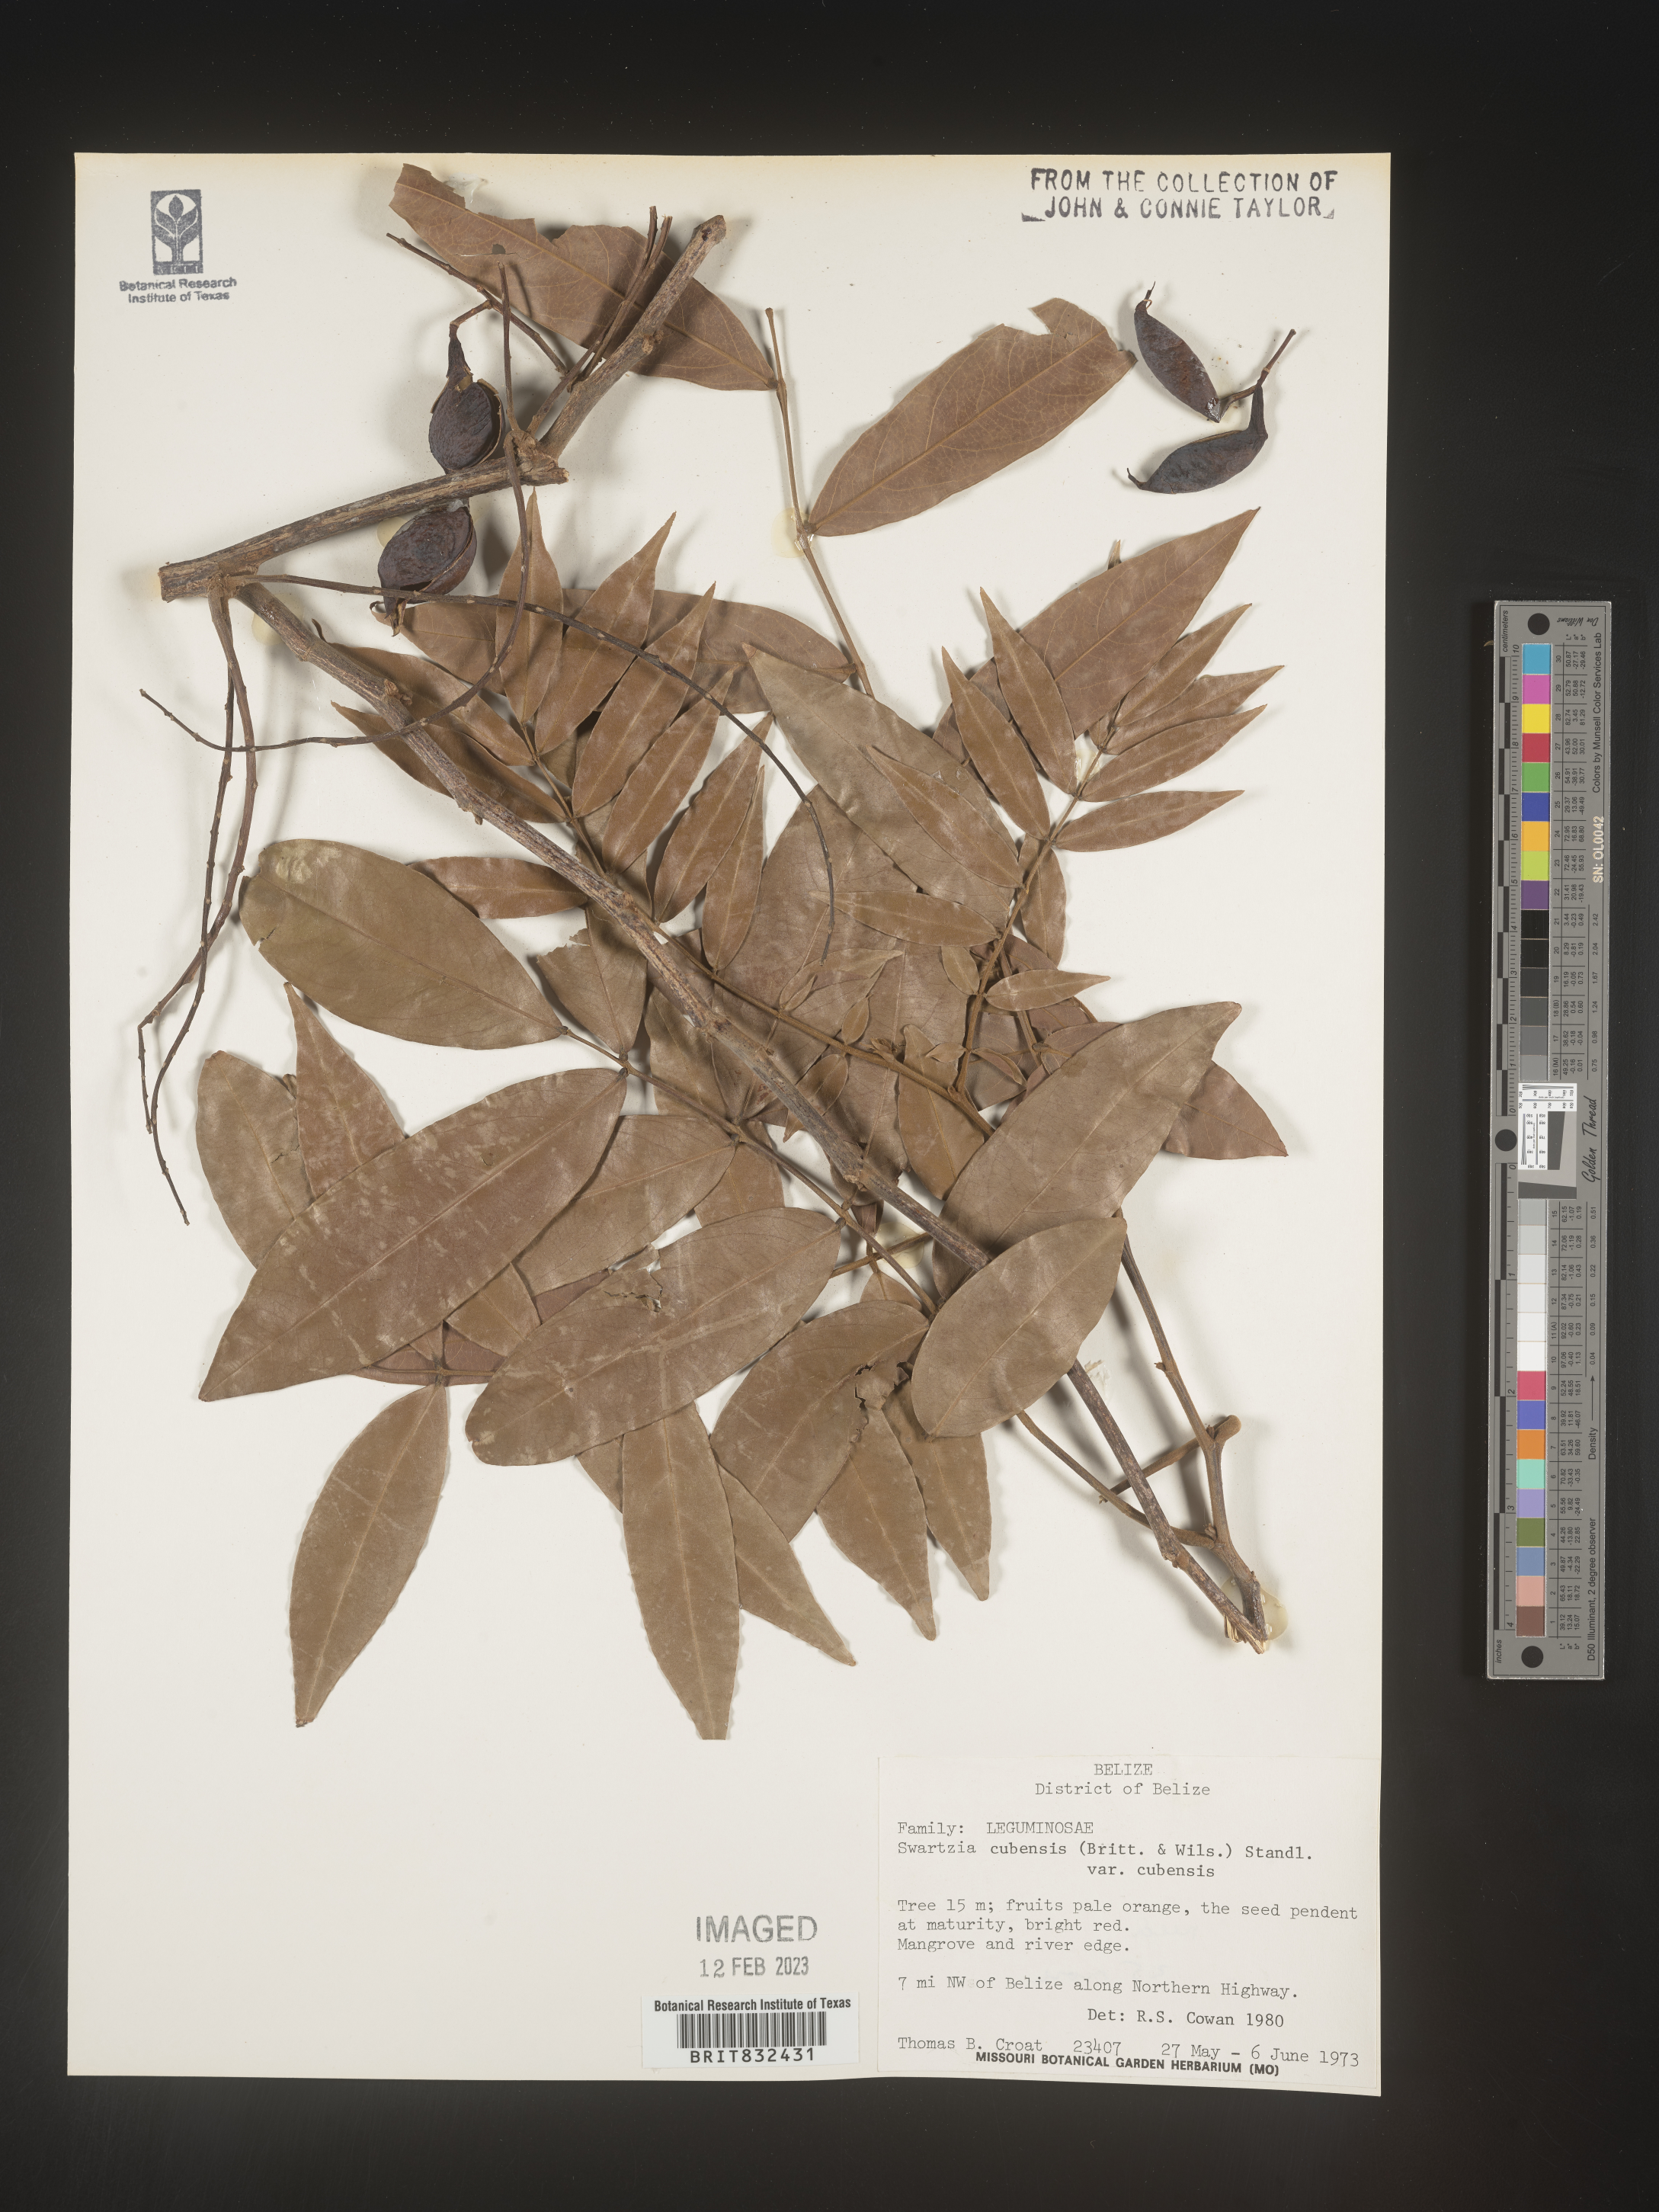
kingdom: Plantae
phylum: Tracheophyta
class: Magnoliopsida
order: Fabales
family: Fabaceae
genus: Swartzia
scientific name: Swartzia
